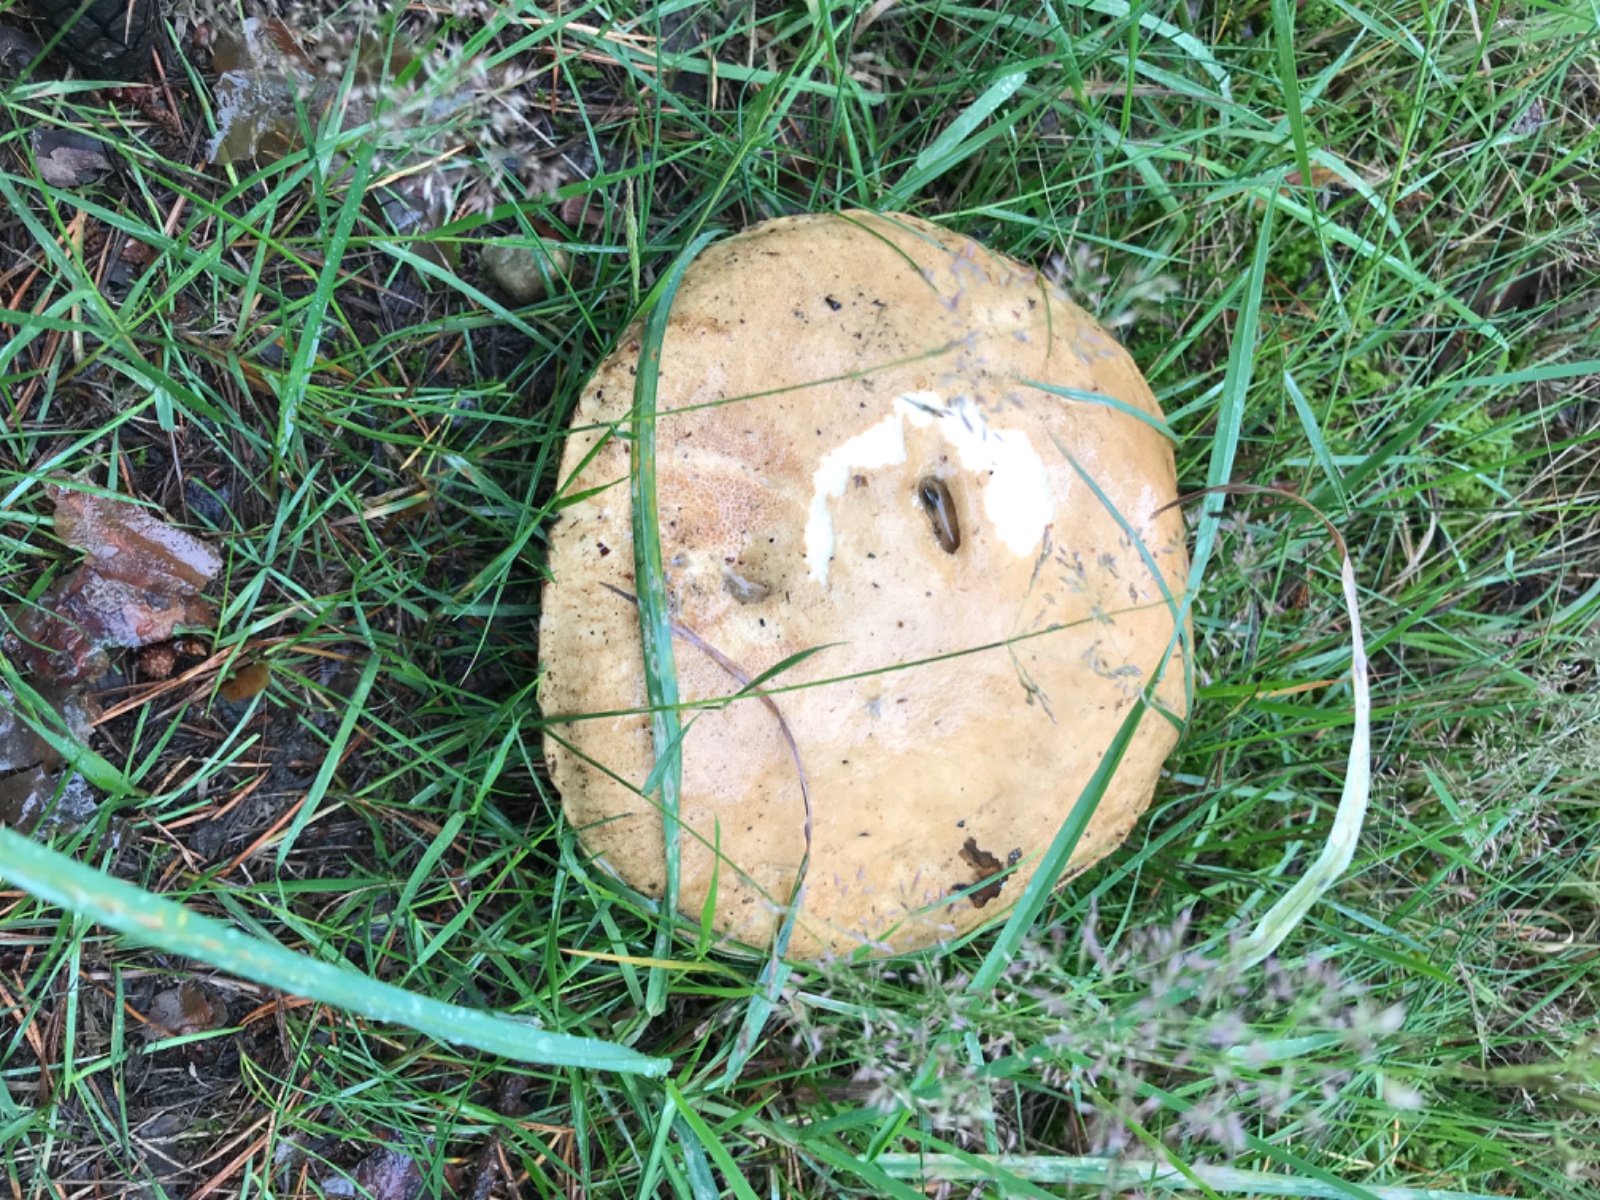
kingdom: Fungi
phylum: Basidiomycota
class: Agaricomycetes
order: Boletales
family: Boletaceae
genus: Tylopilus
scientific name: Tylopilus felleus
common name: galderørhat
